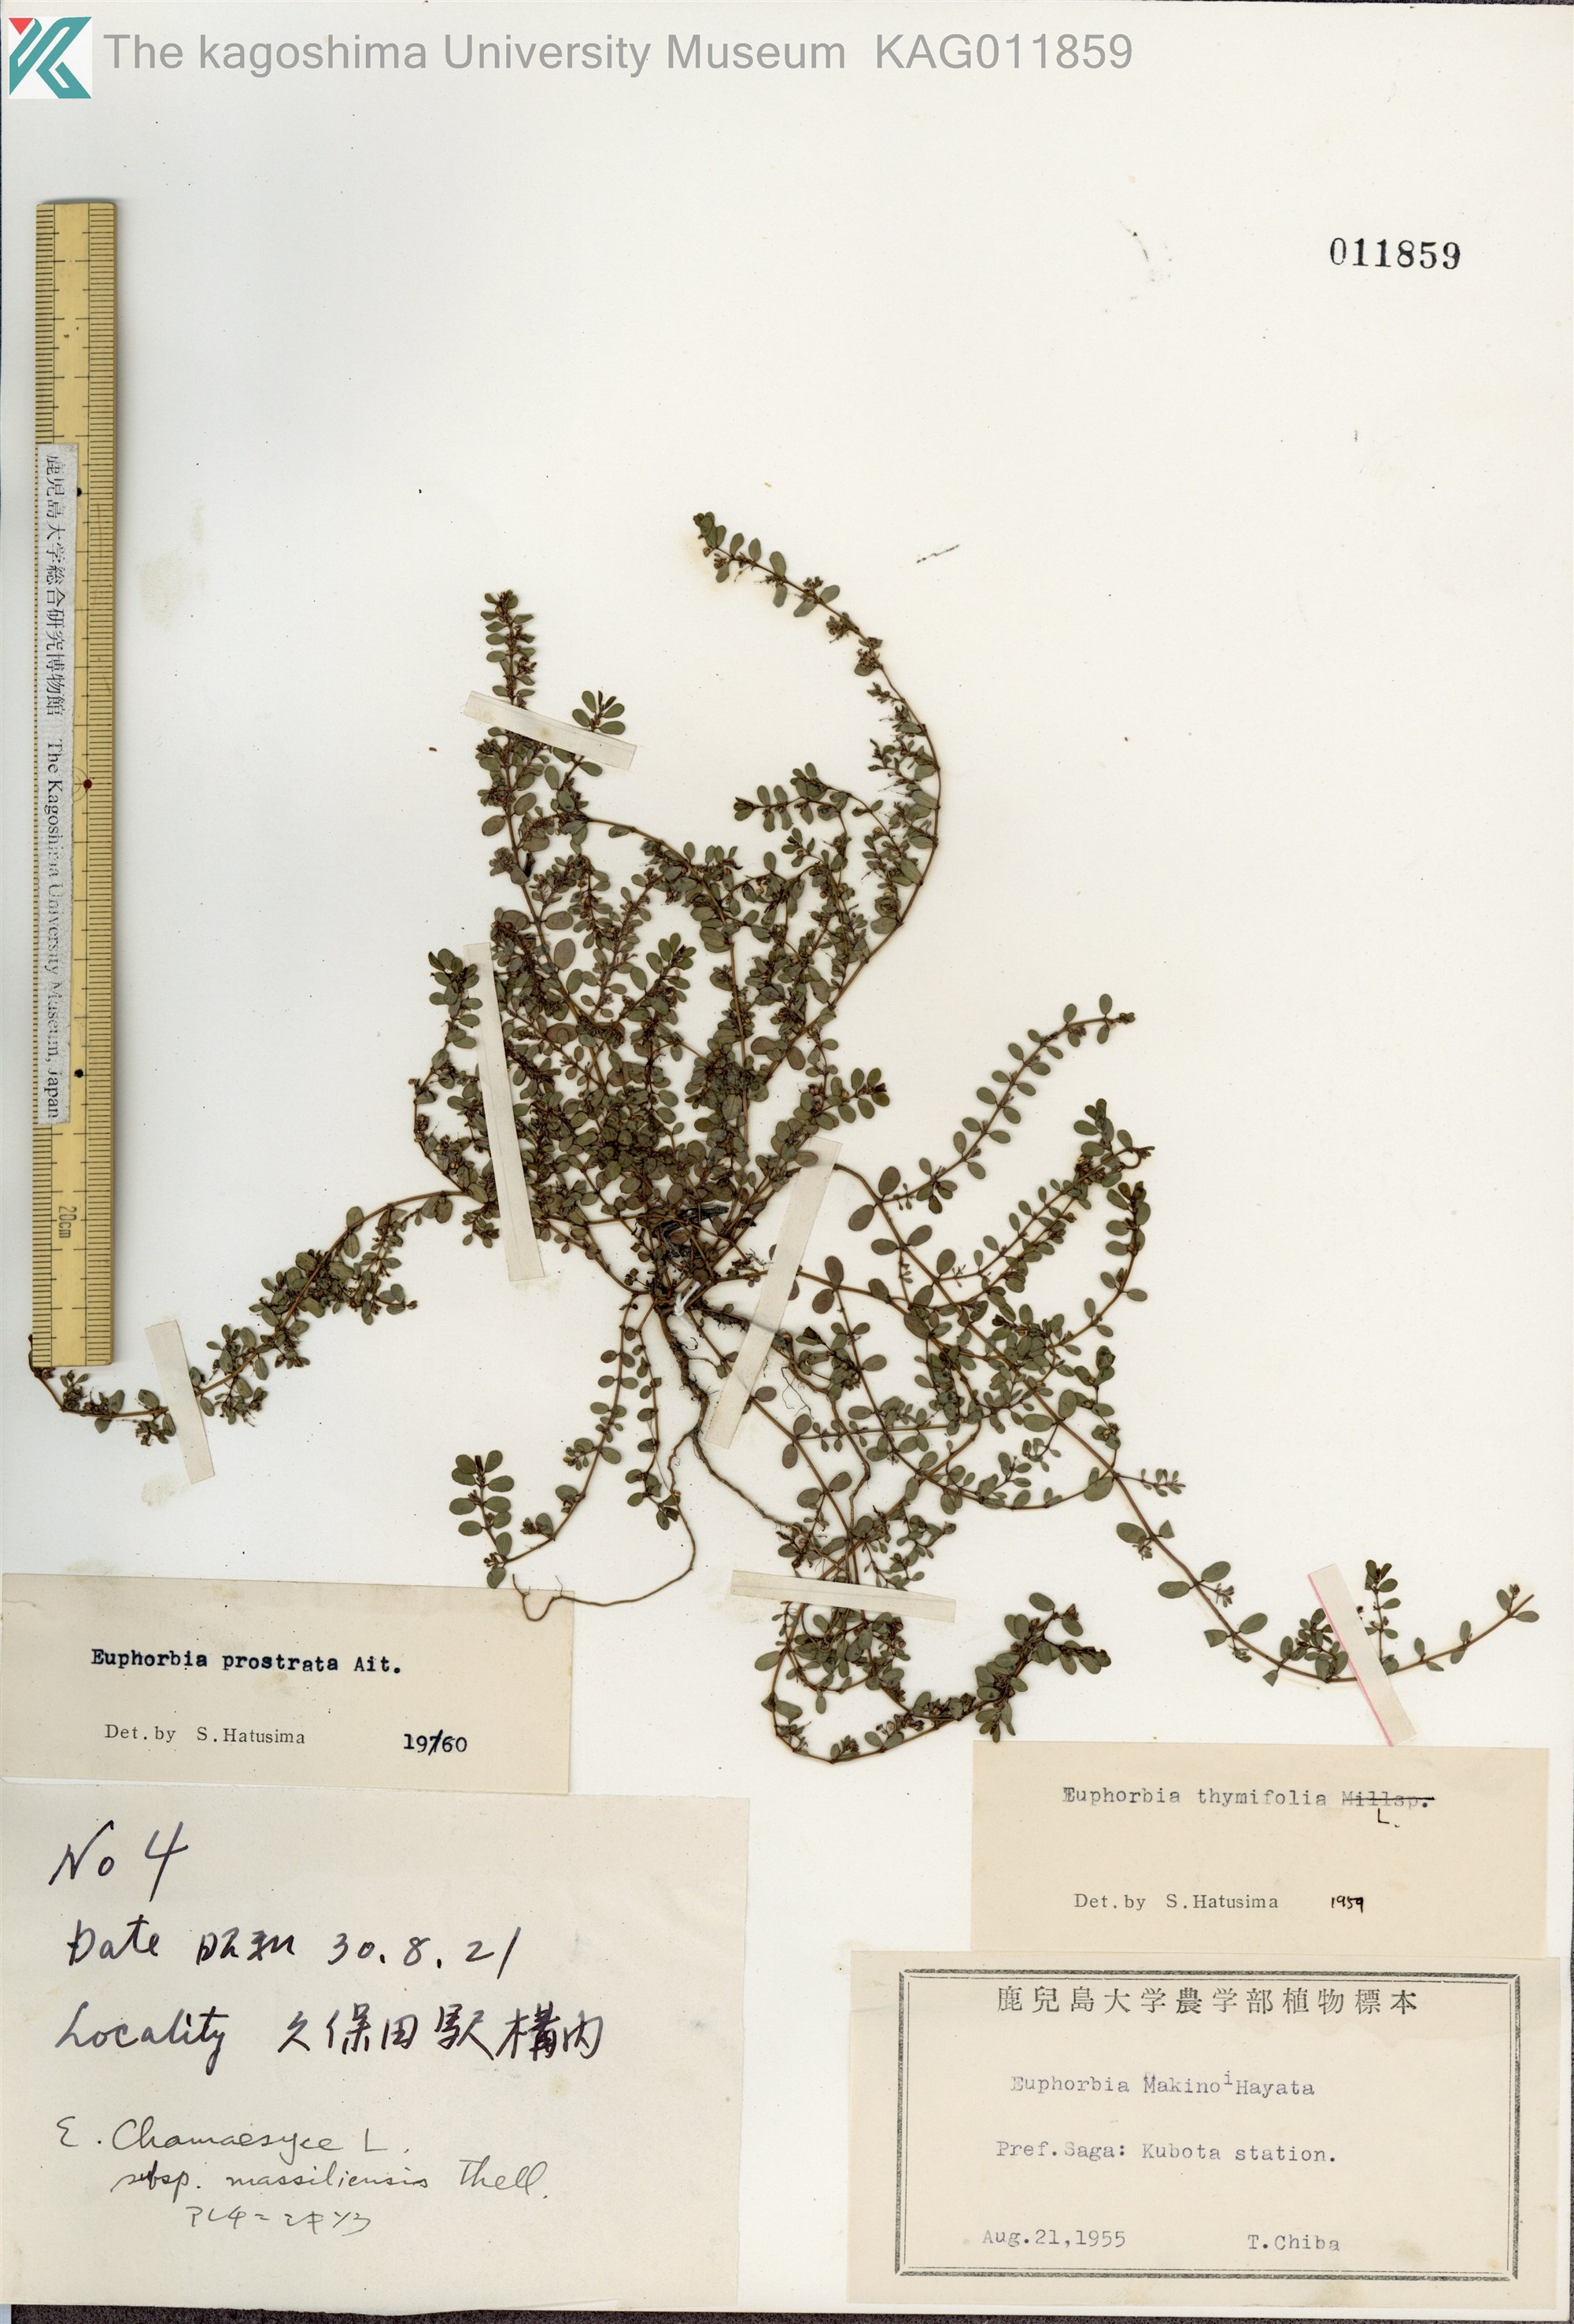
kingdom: Plantae
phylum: Tracheophyta
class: Magnoliopsida
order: Malpighiales
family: Euphorbiaceae
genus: Euphorbia
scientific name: Euphorbia prostrata
